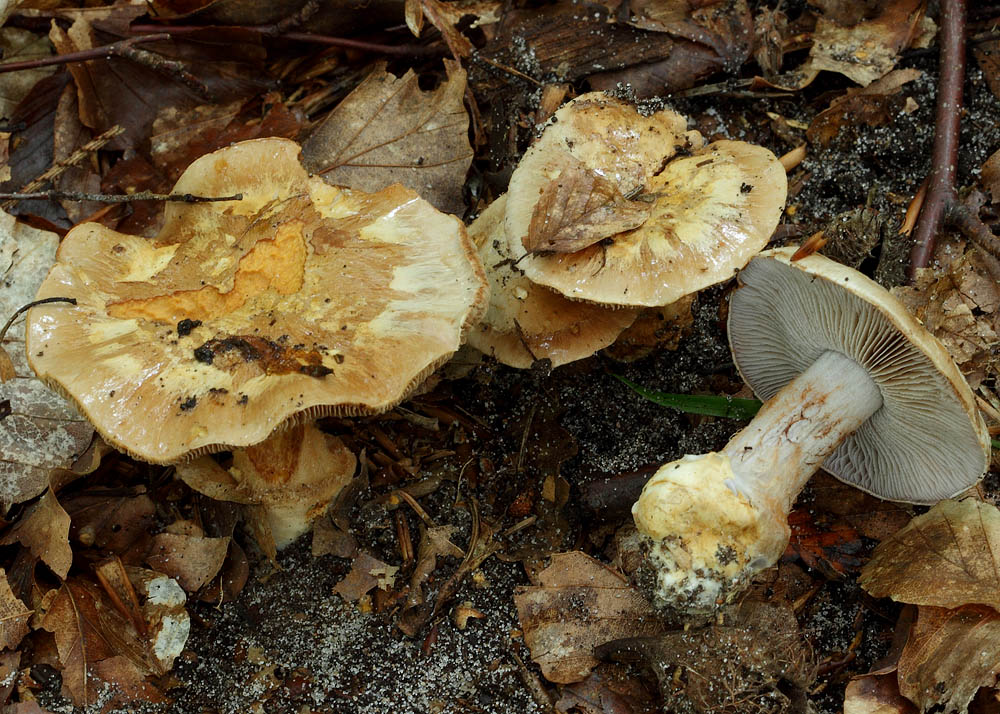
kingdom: Fungi
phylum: Basidiomycota
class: Agaricomycetes
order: Agaricales
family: Cortinariaceae
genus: Phlegmacium
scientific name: Phlegmacium luhmannii
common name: musegrå slørhat
